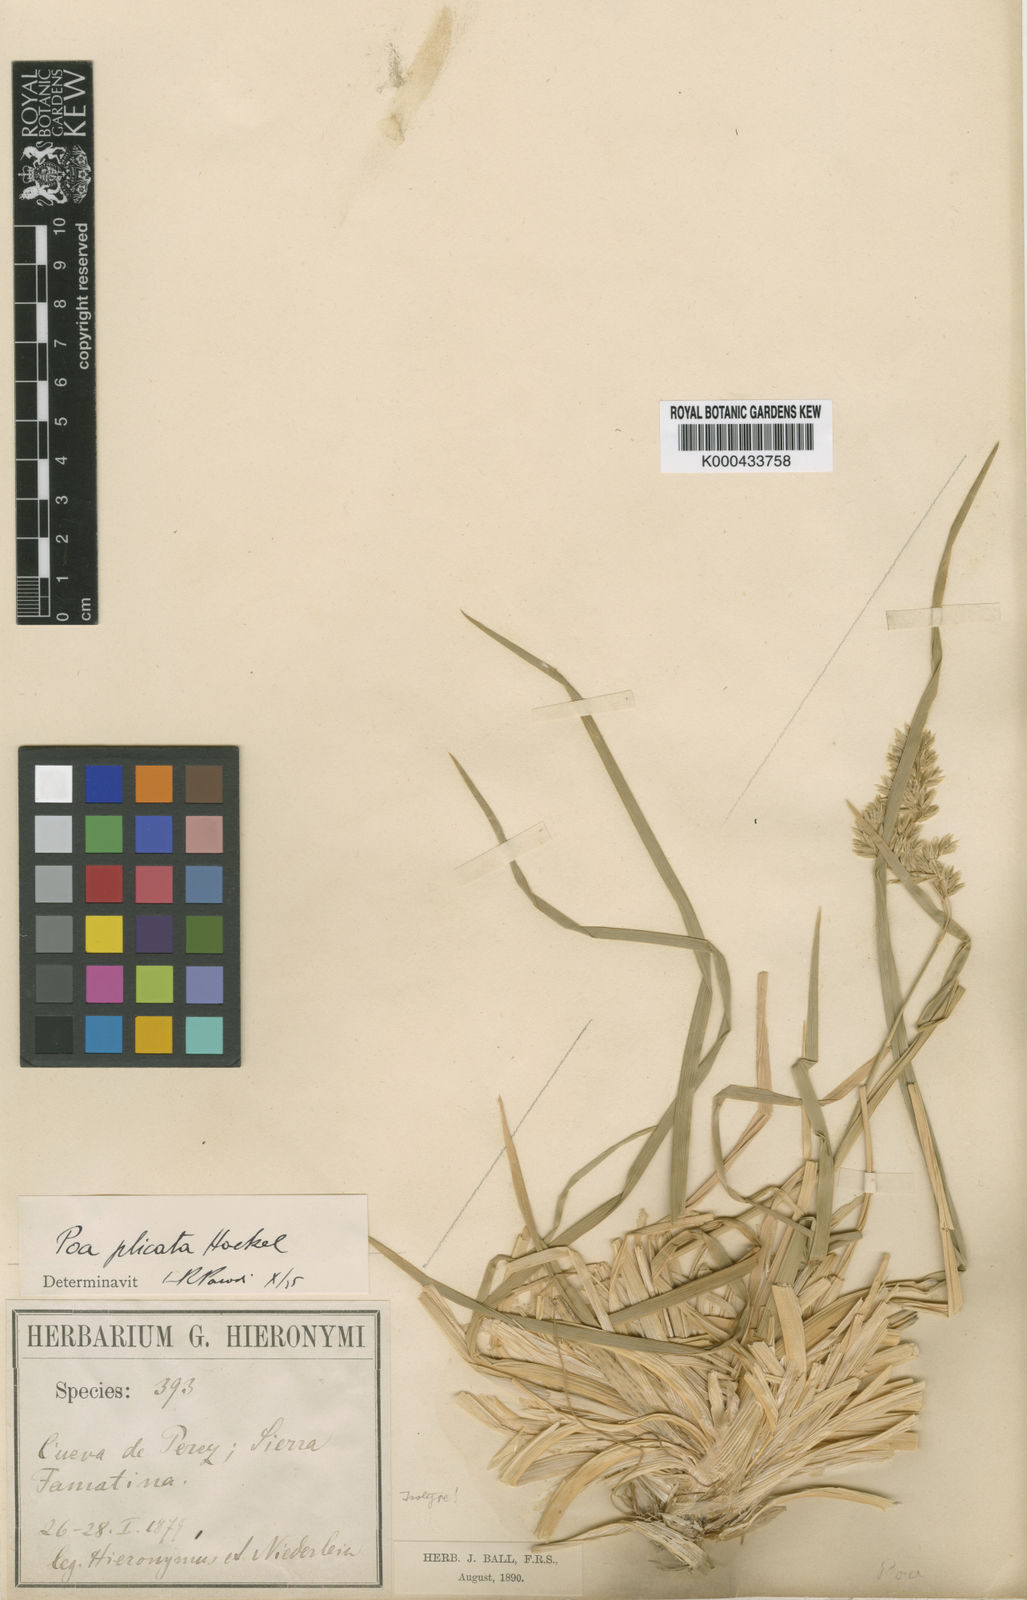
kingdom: Plantae
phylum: Tracheophyta
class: Liliopsida
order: Poales
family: Poaceae
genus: Poa
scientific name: Poa plicata
